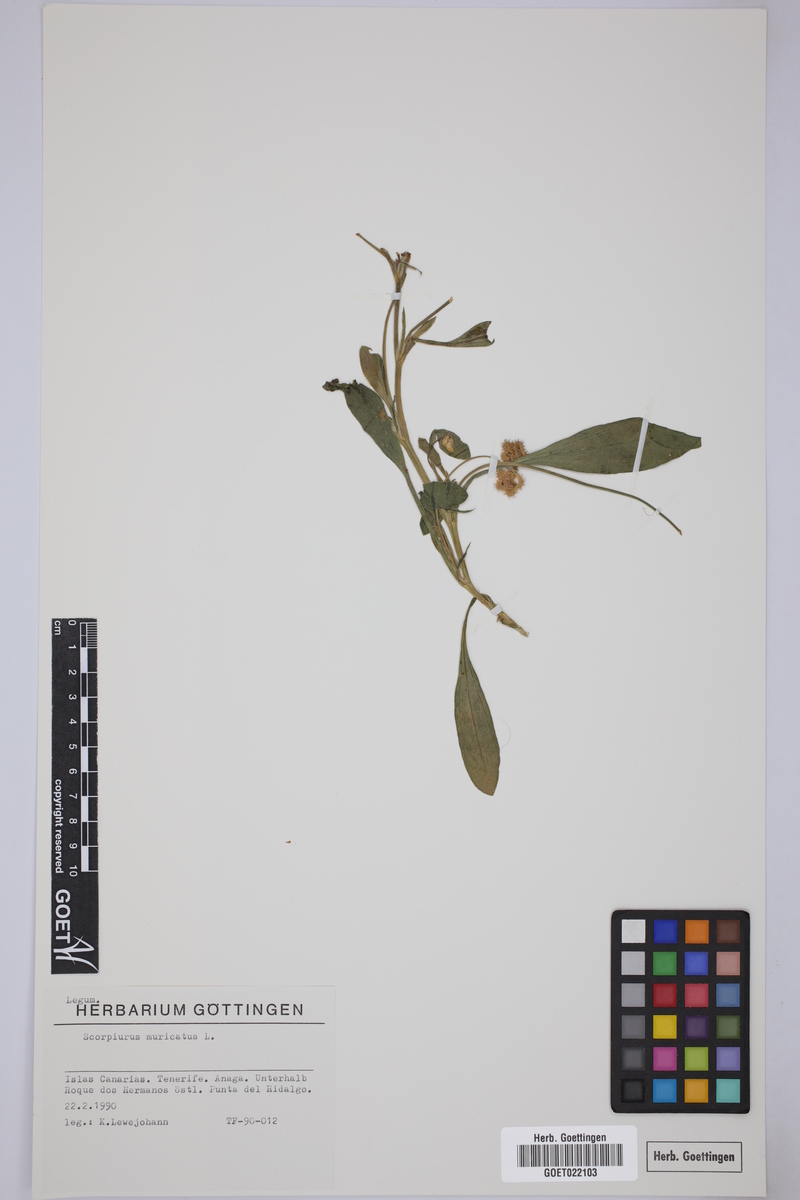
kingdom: Plantae
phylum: Tracheophyta
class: Magnoliopsida
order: Fabales
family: Fabaceae
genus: Scorpiurus
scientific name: Scorpiurus muricatus
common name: Caterpillar-plant
